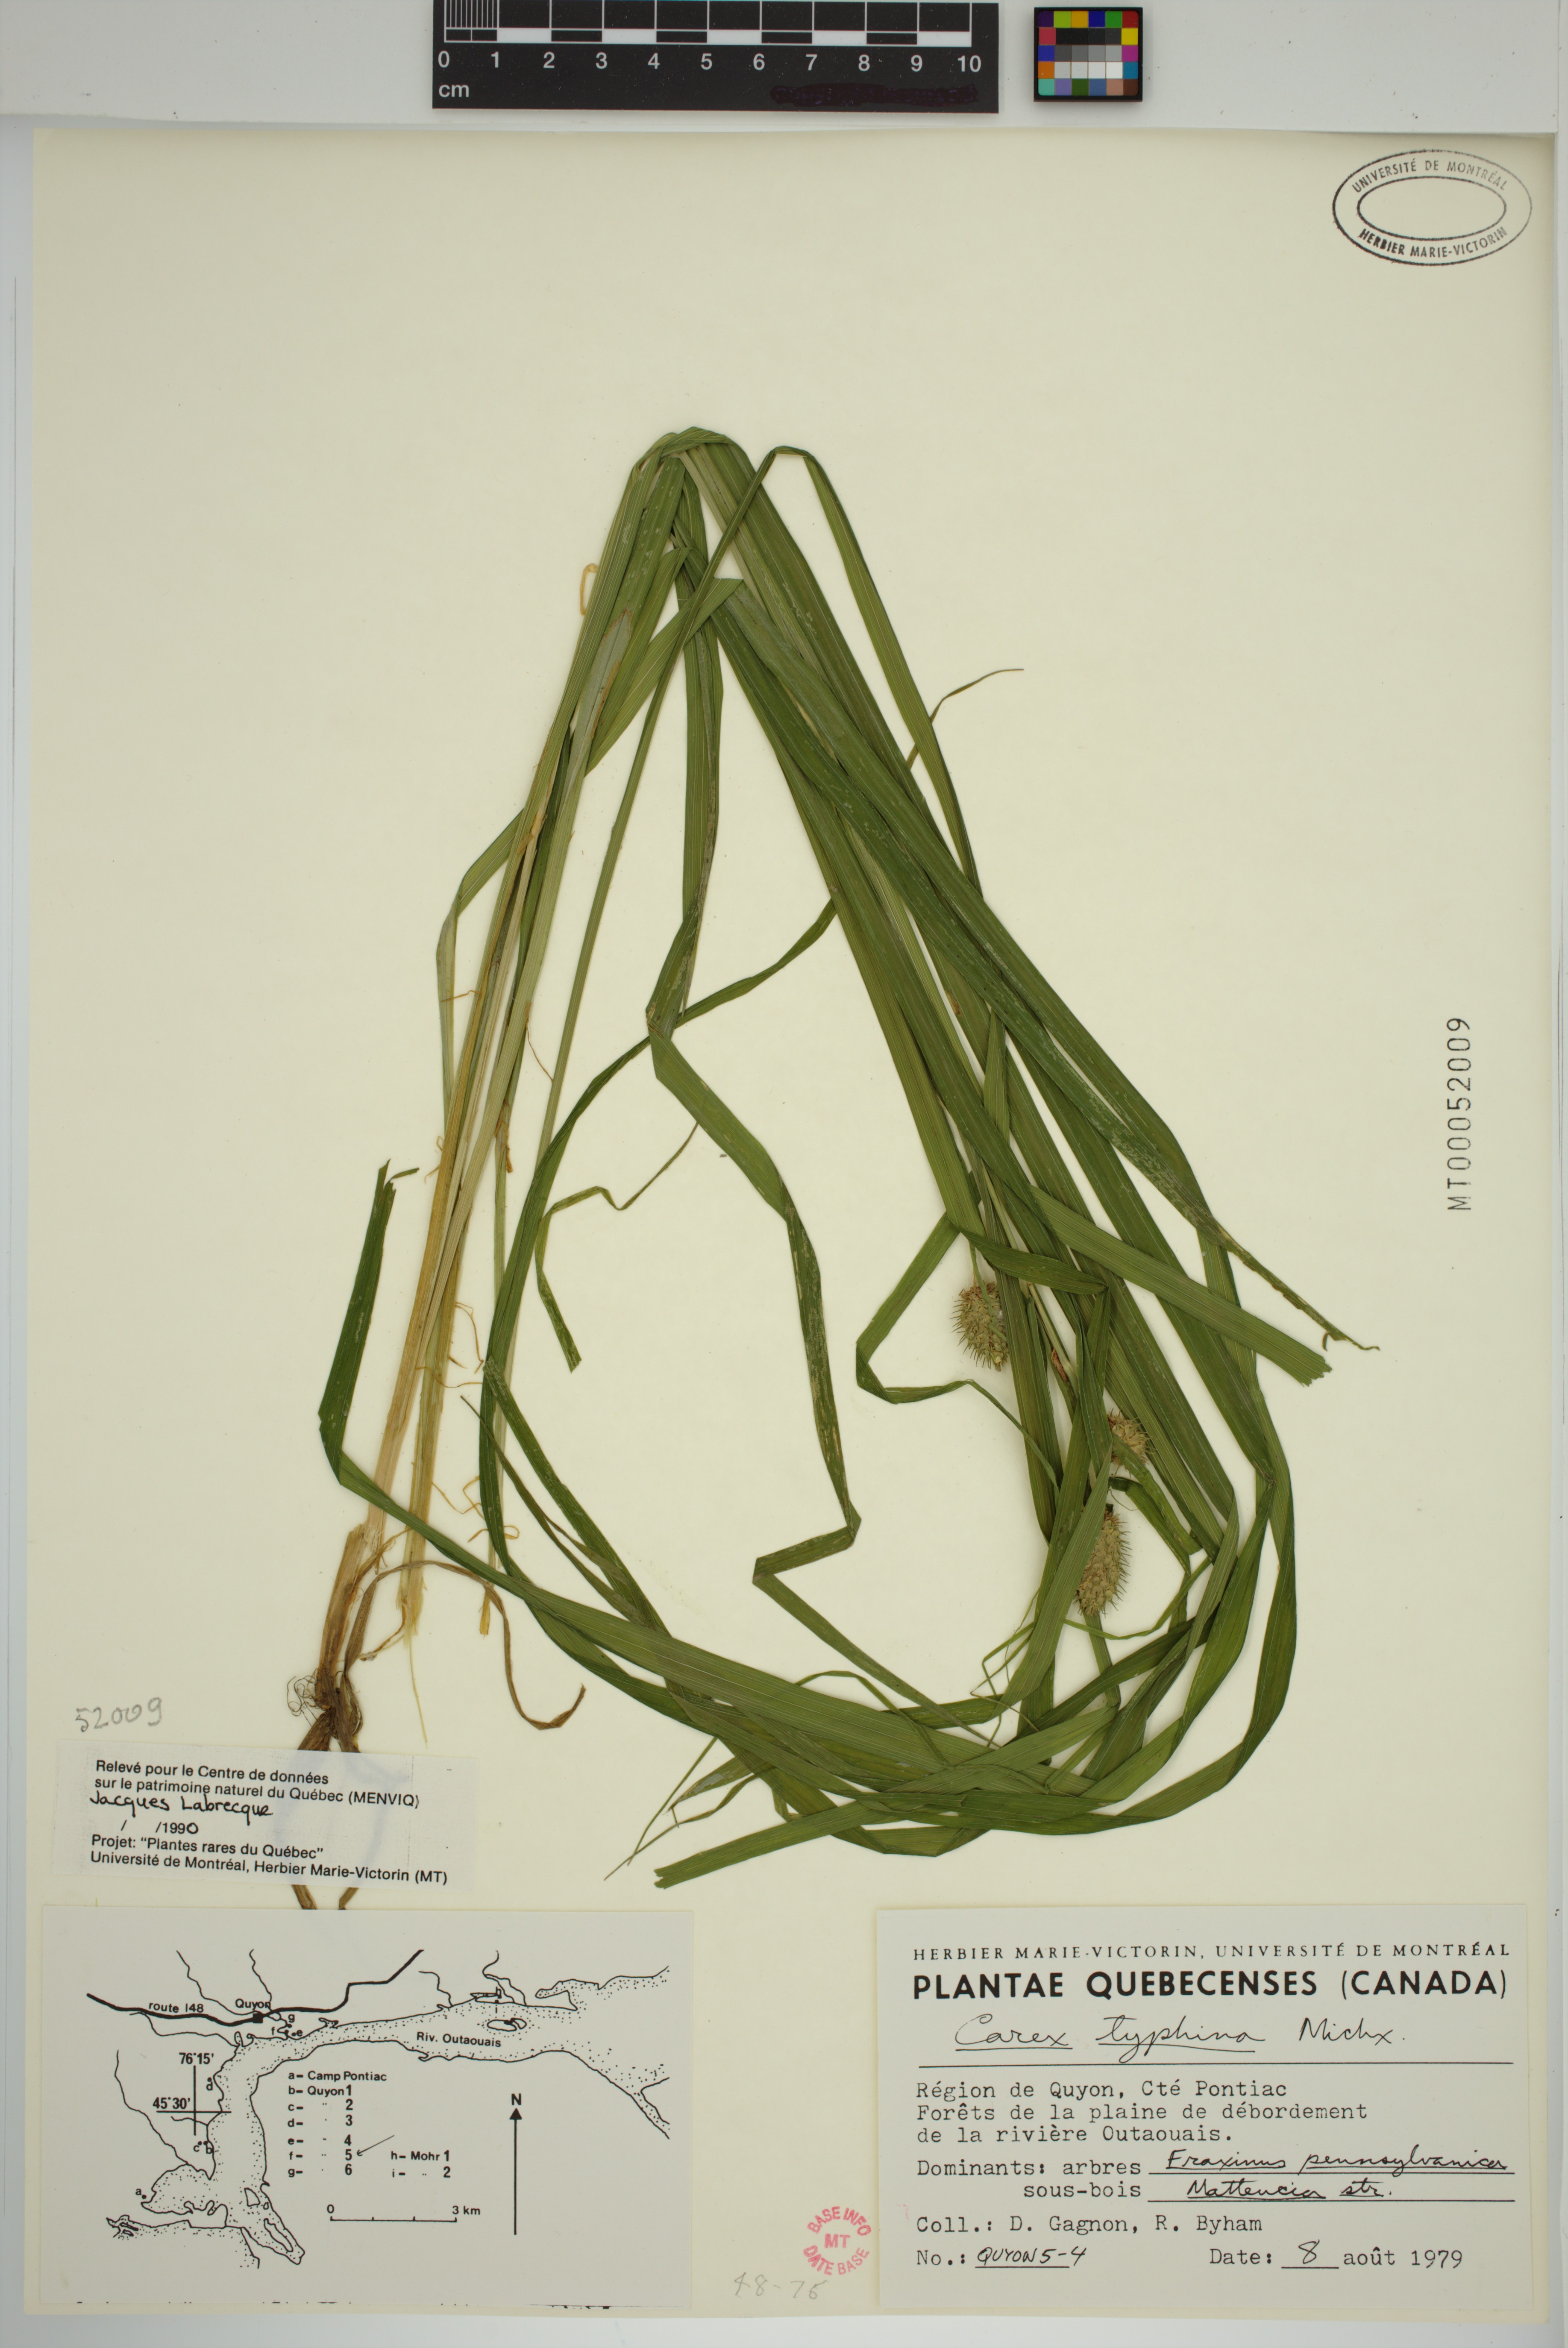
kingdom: Plantae
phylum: Tracheophyta
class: Liliopsida
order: Poales
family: Cyperaceae
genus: Carex
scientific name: Carex typhina
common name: Cattail sedge
